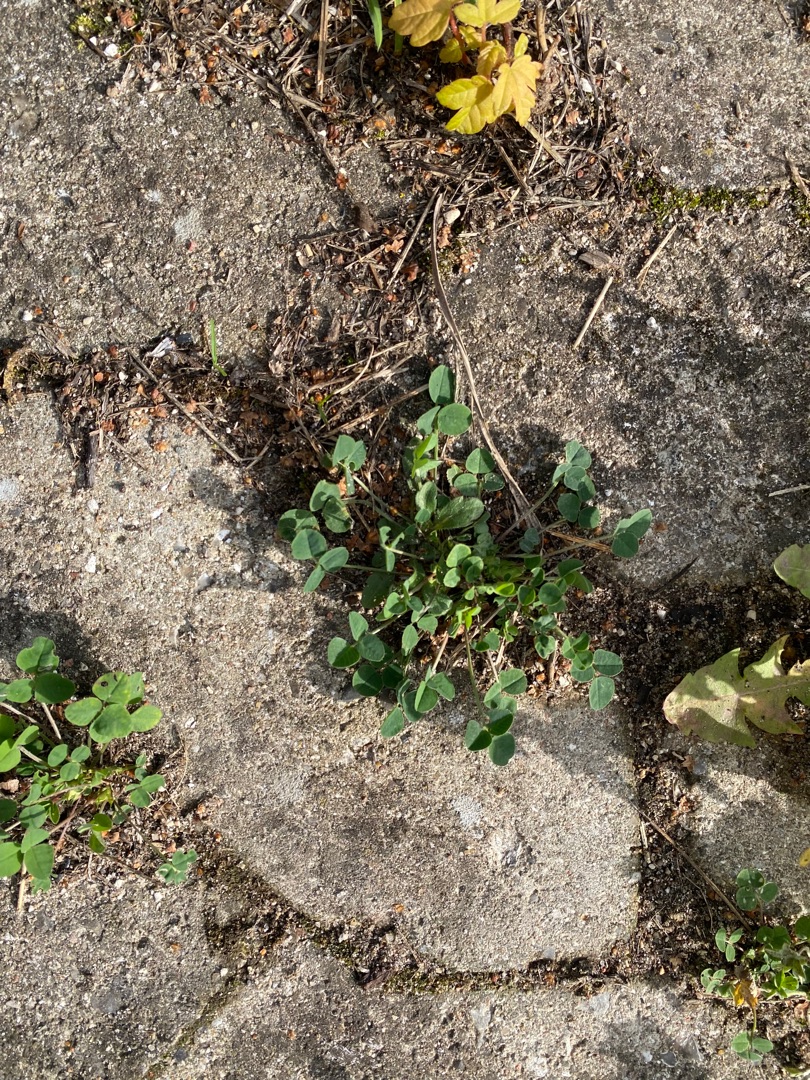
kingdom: Plantae
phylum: Tracheophyta
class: Magnoliopsida
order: Fabales
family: Fabaceae
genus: Medicago
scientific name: Medicago lupulina
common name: Humle-sneglebælg
